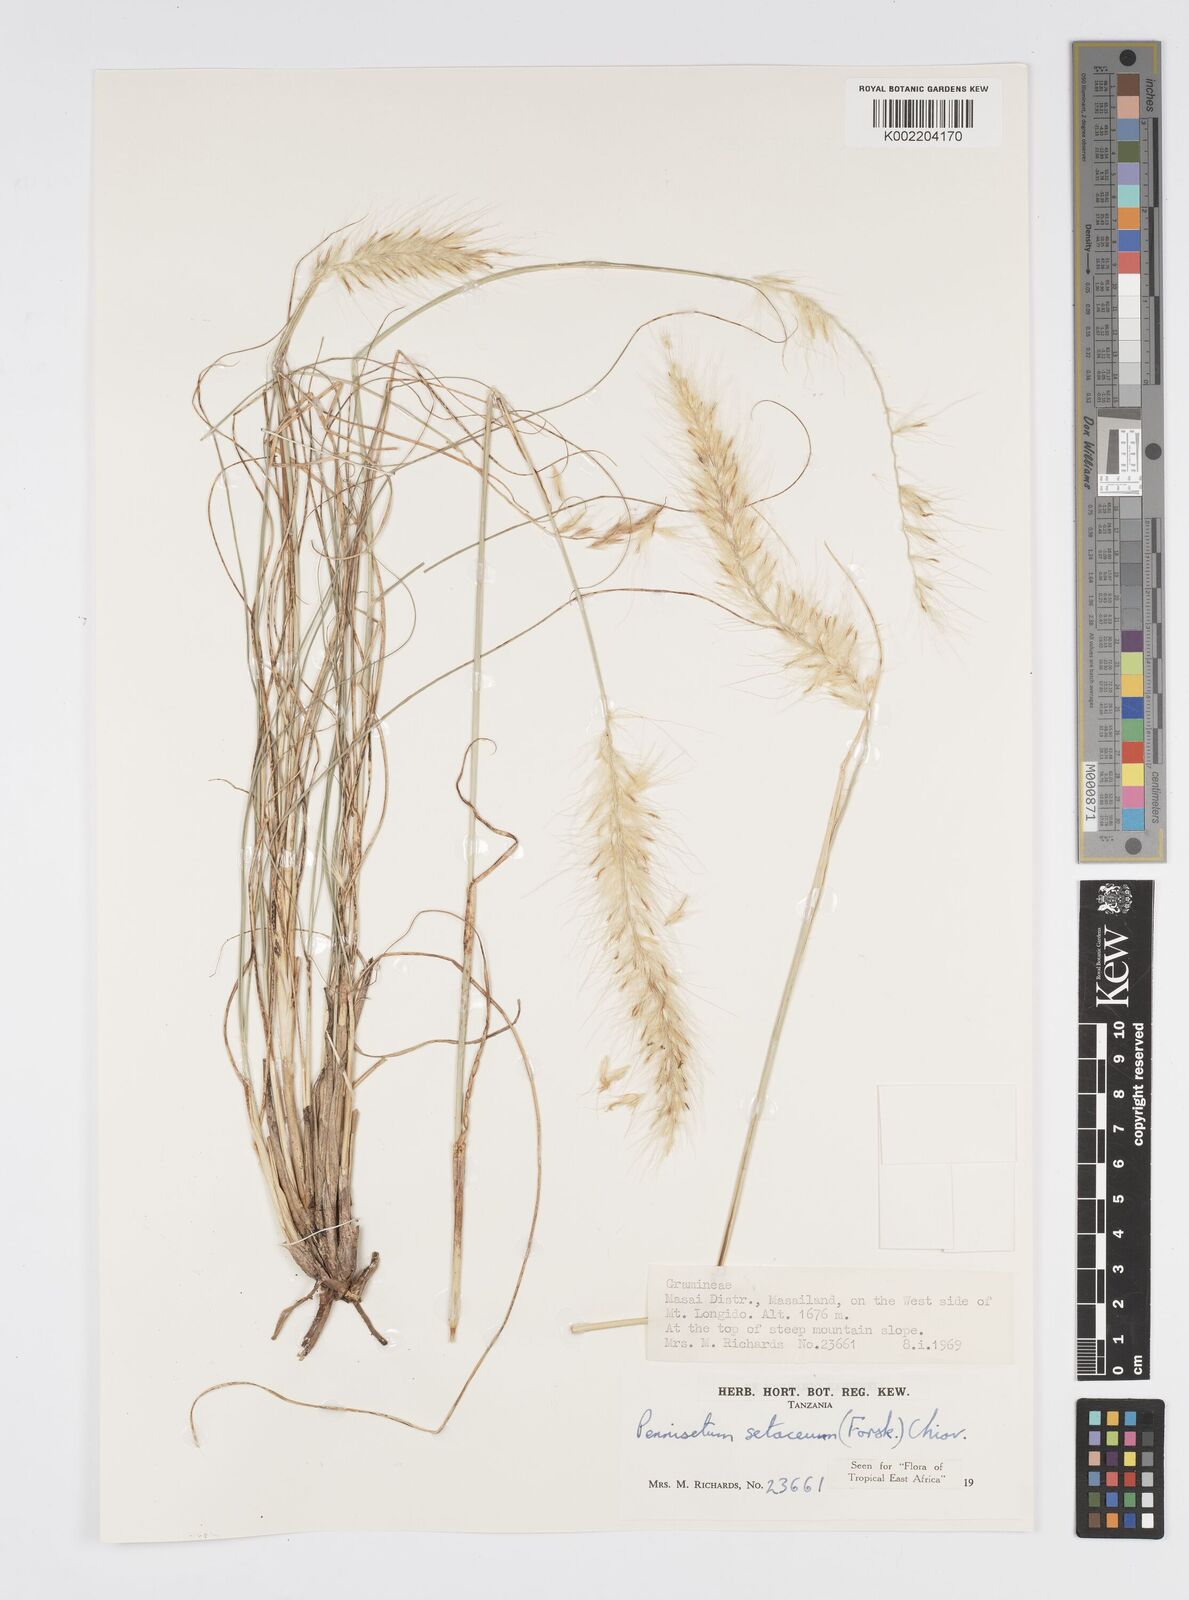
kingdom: Plantae
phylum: Tracheophyta
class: Liliopsida
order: Poales
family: Poaceae
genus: Cenchrus
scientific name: Cenchrus setaceus
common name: Crimson fountaingrass
